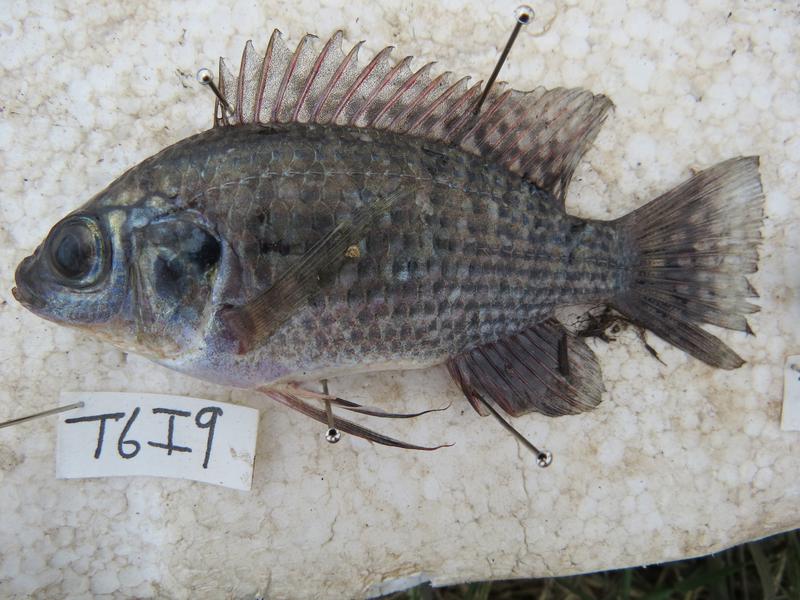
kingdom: Animalia
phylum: Chordata
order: Perciformes
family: Cichlidae
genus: Oreochromis
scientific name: Oreochromis leucostictus
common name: Blue spotted tilapia
